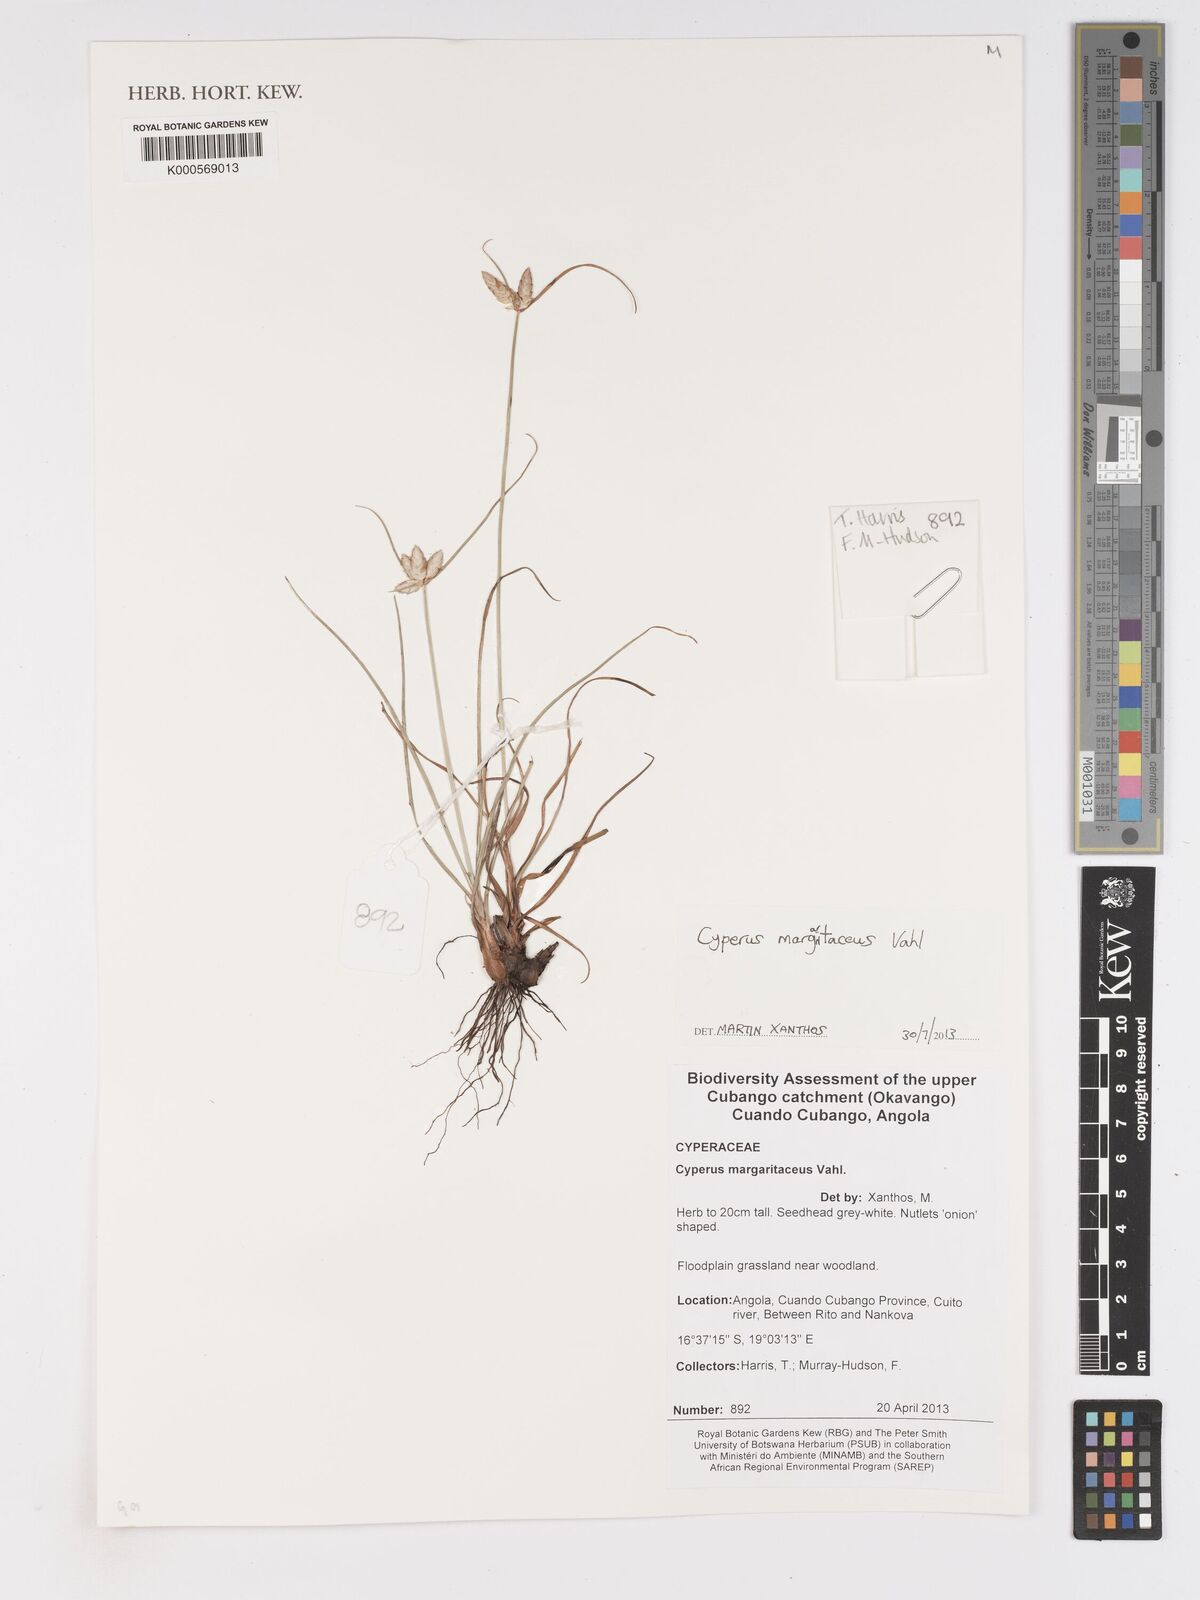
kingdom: Plantae
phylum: Tracheophyta
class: Liliopsida
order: Poales
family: Cyperaceae
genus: Cyperus
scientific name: Cyperus margaritaceus
